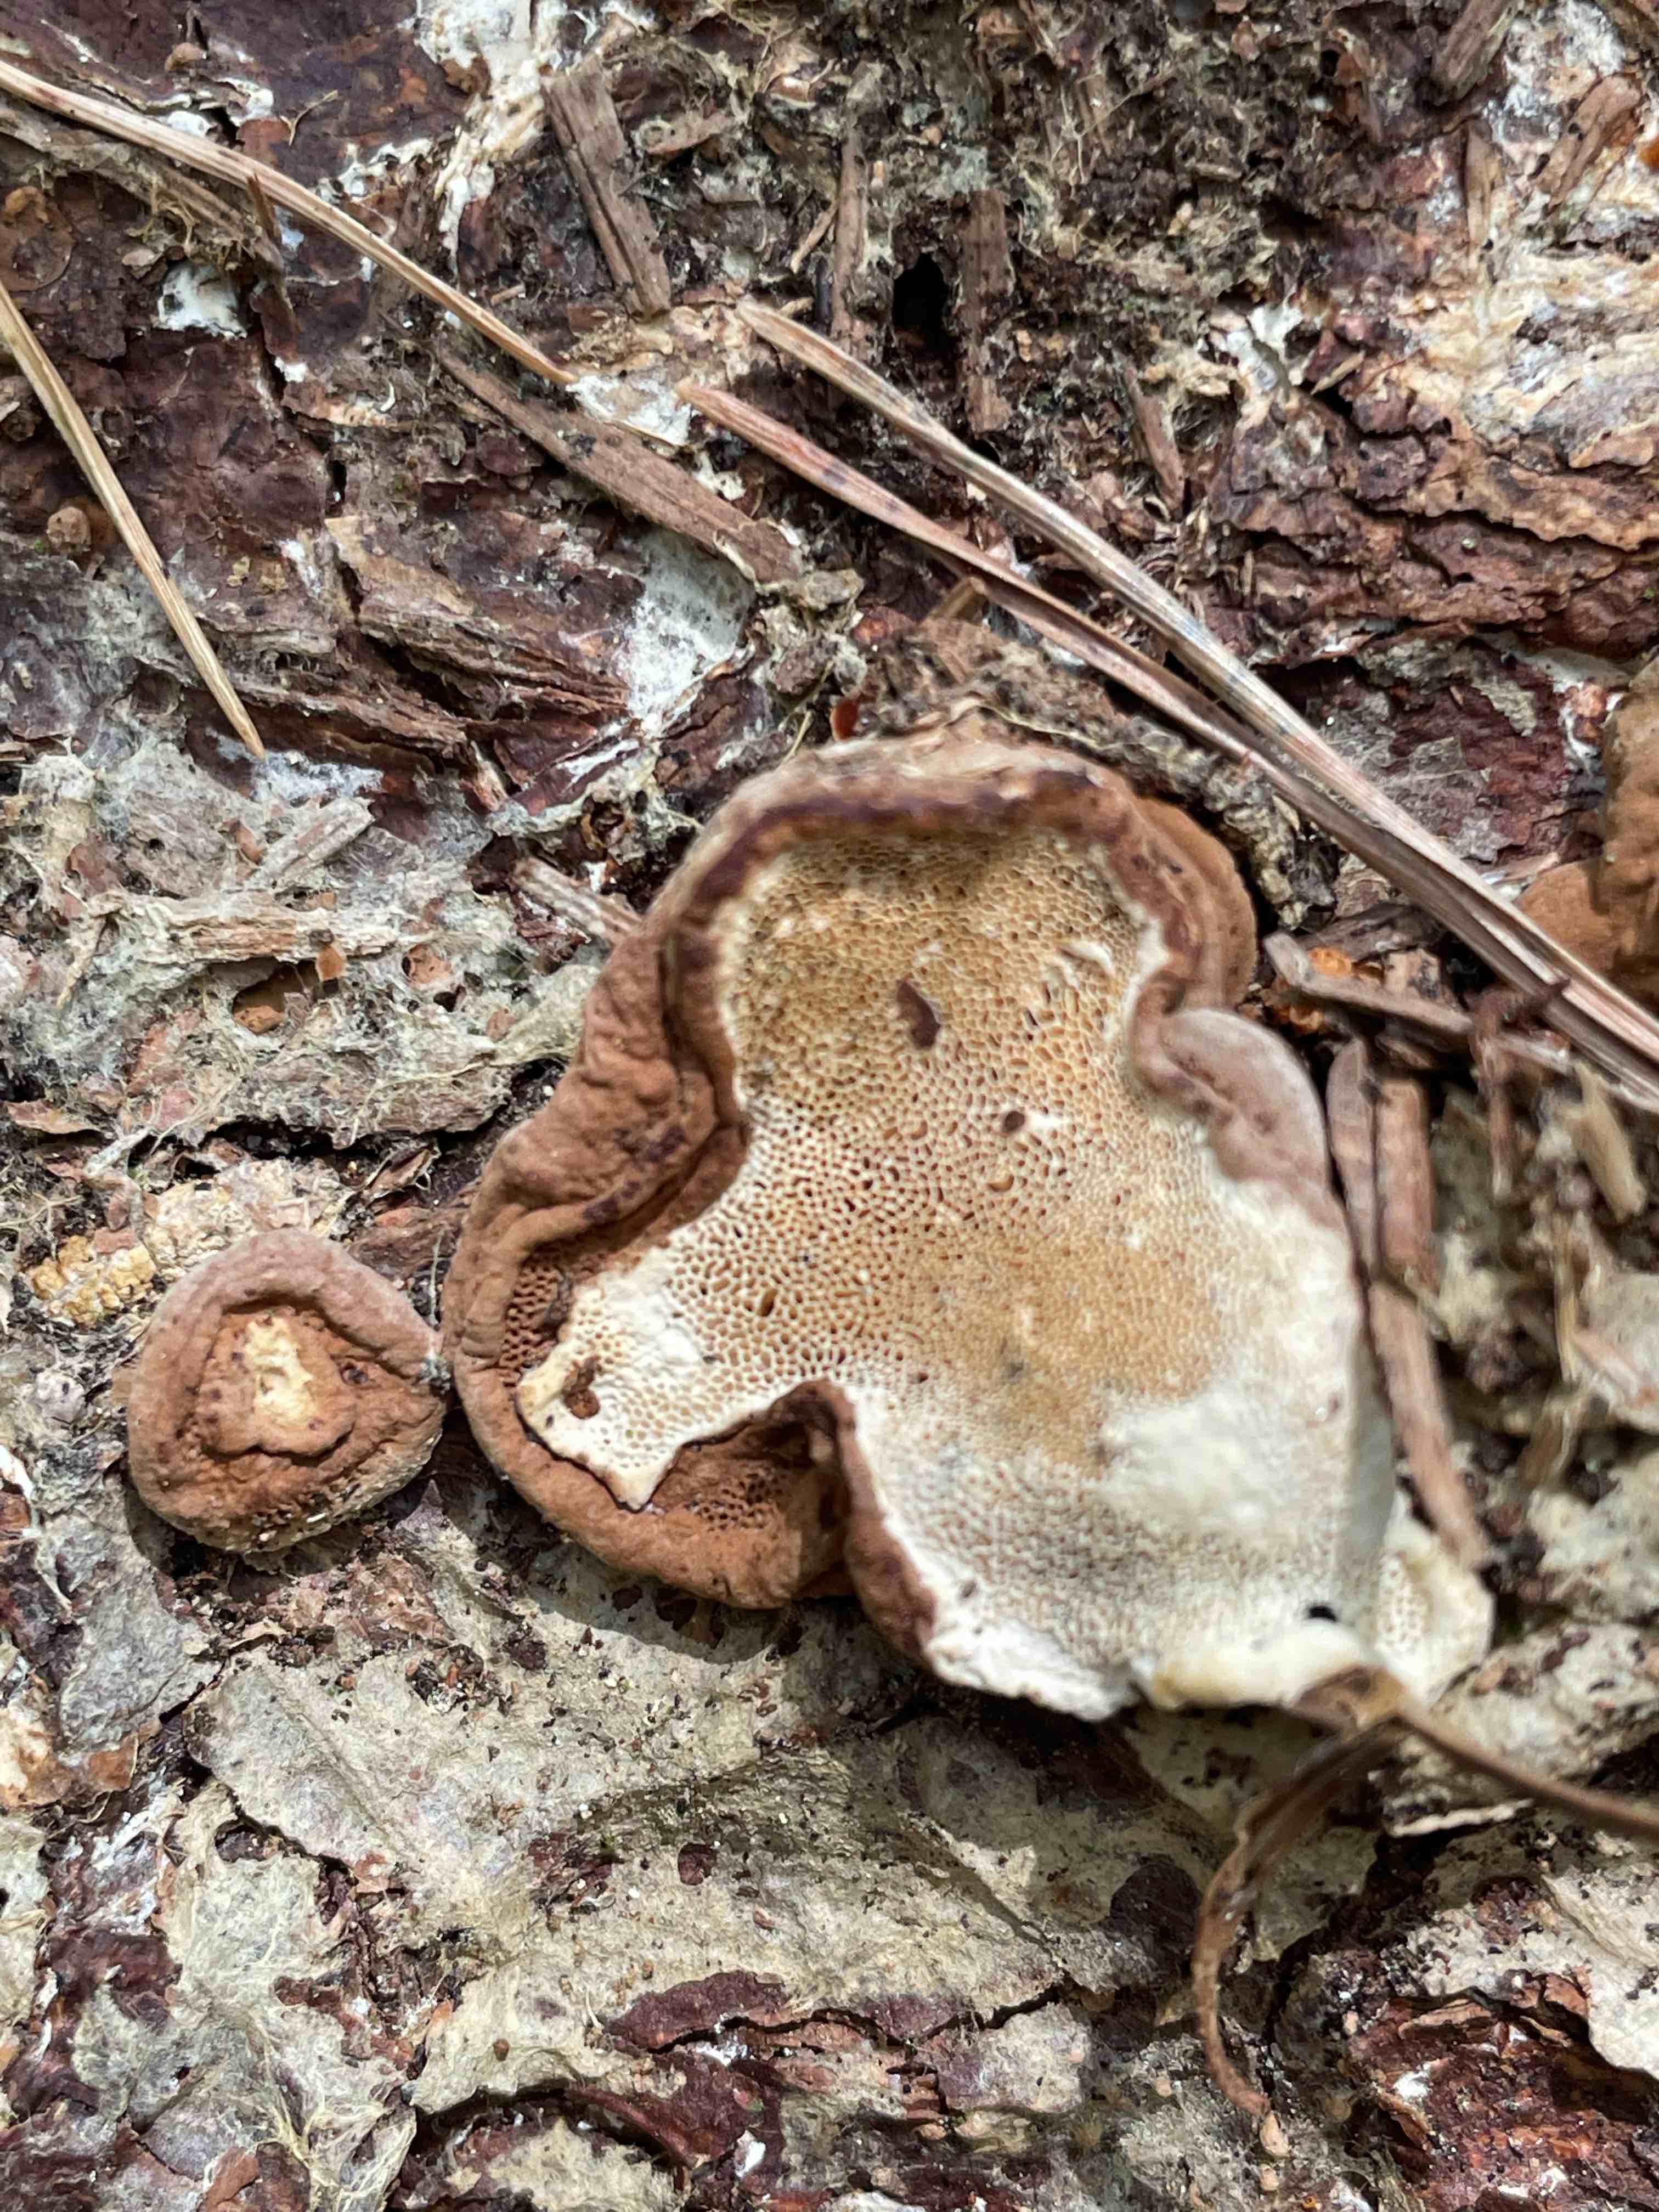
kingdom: Fungi
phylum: Basidiomycota
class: Agaricomycetes
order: Polyporales
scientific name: Polyporales
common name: poresvampordenen
